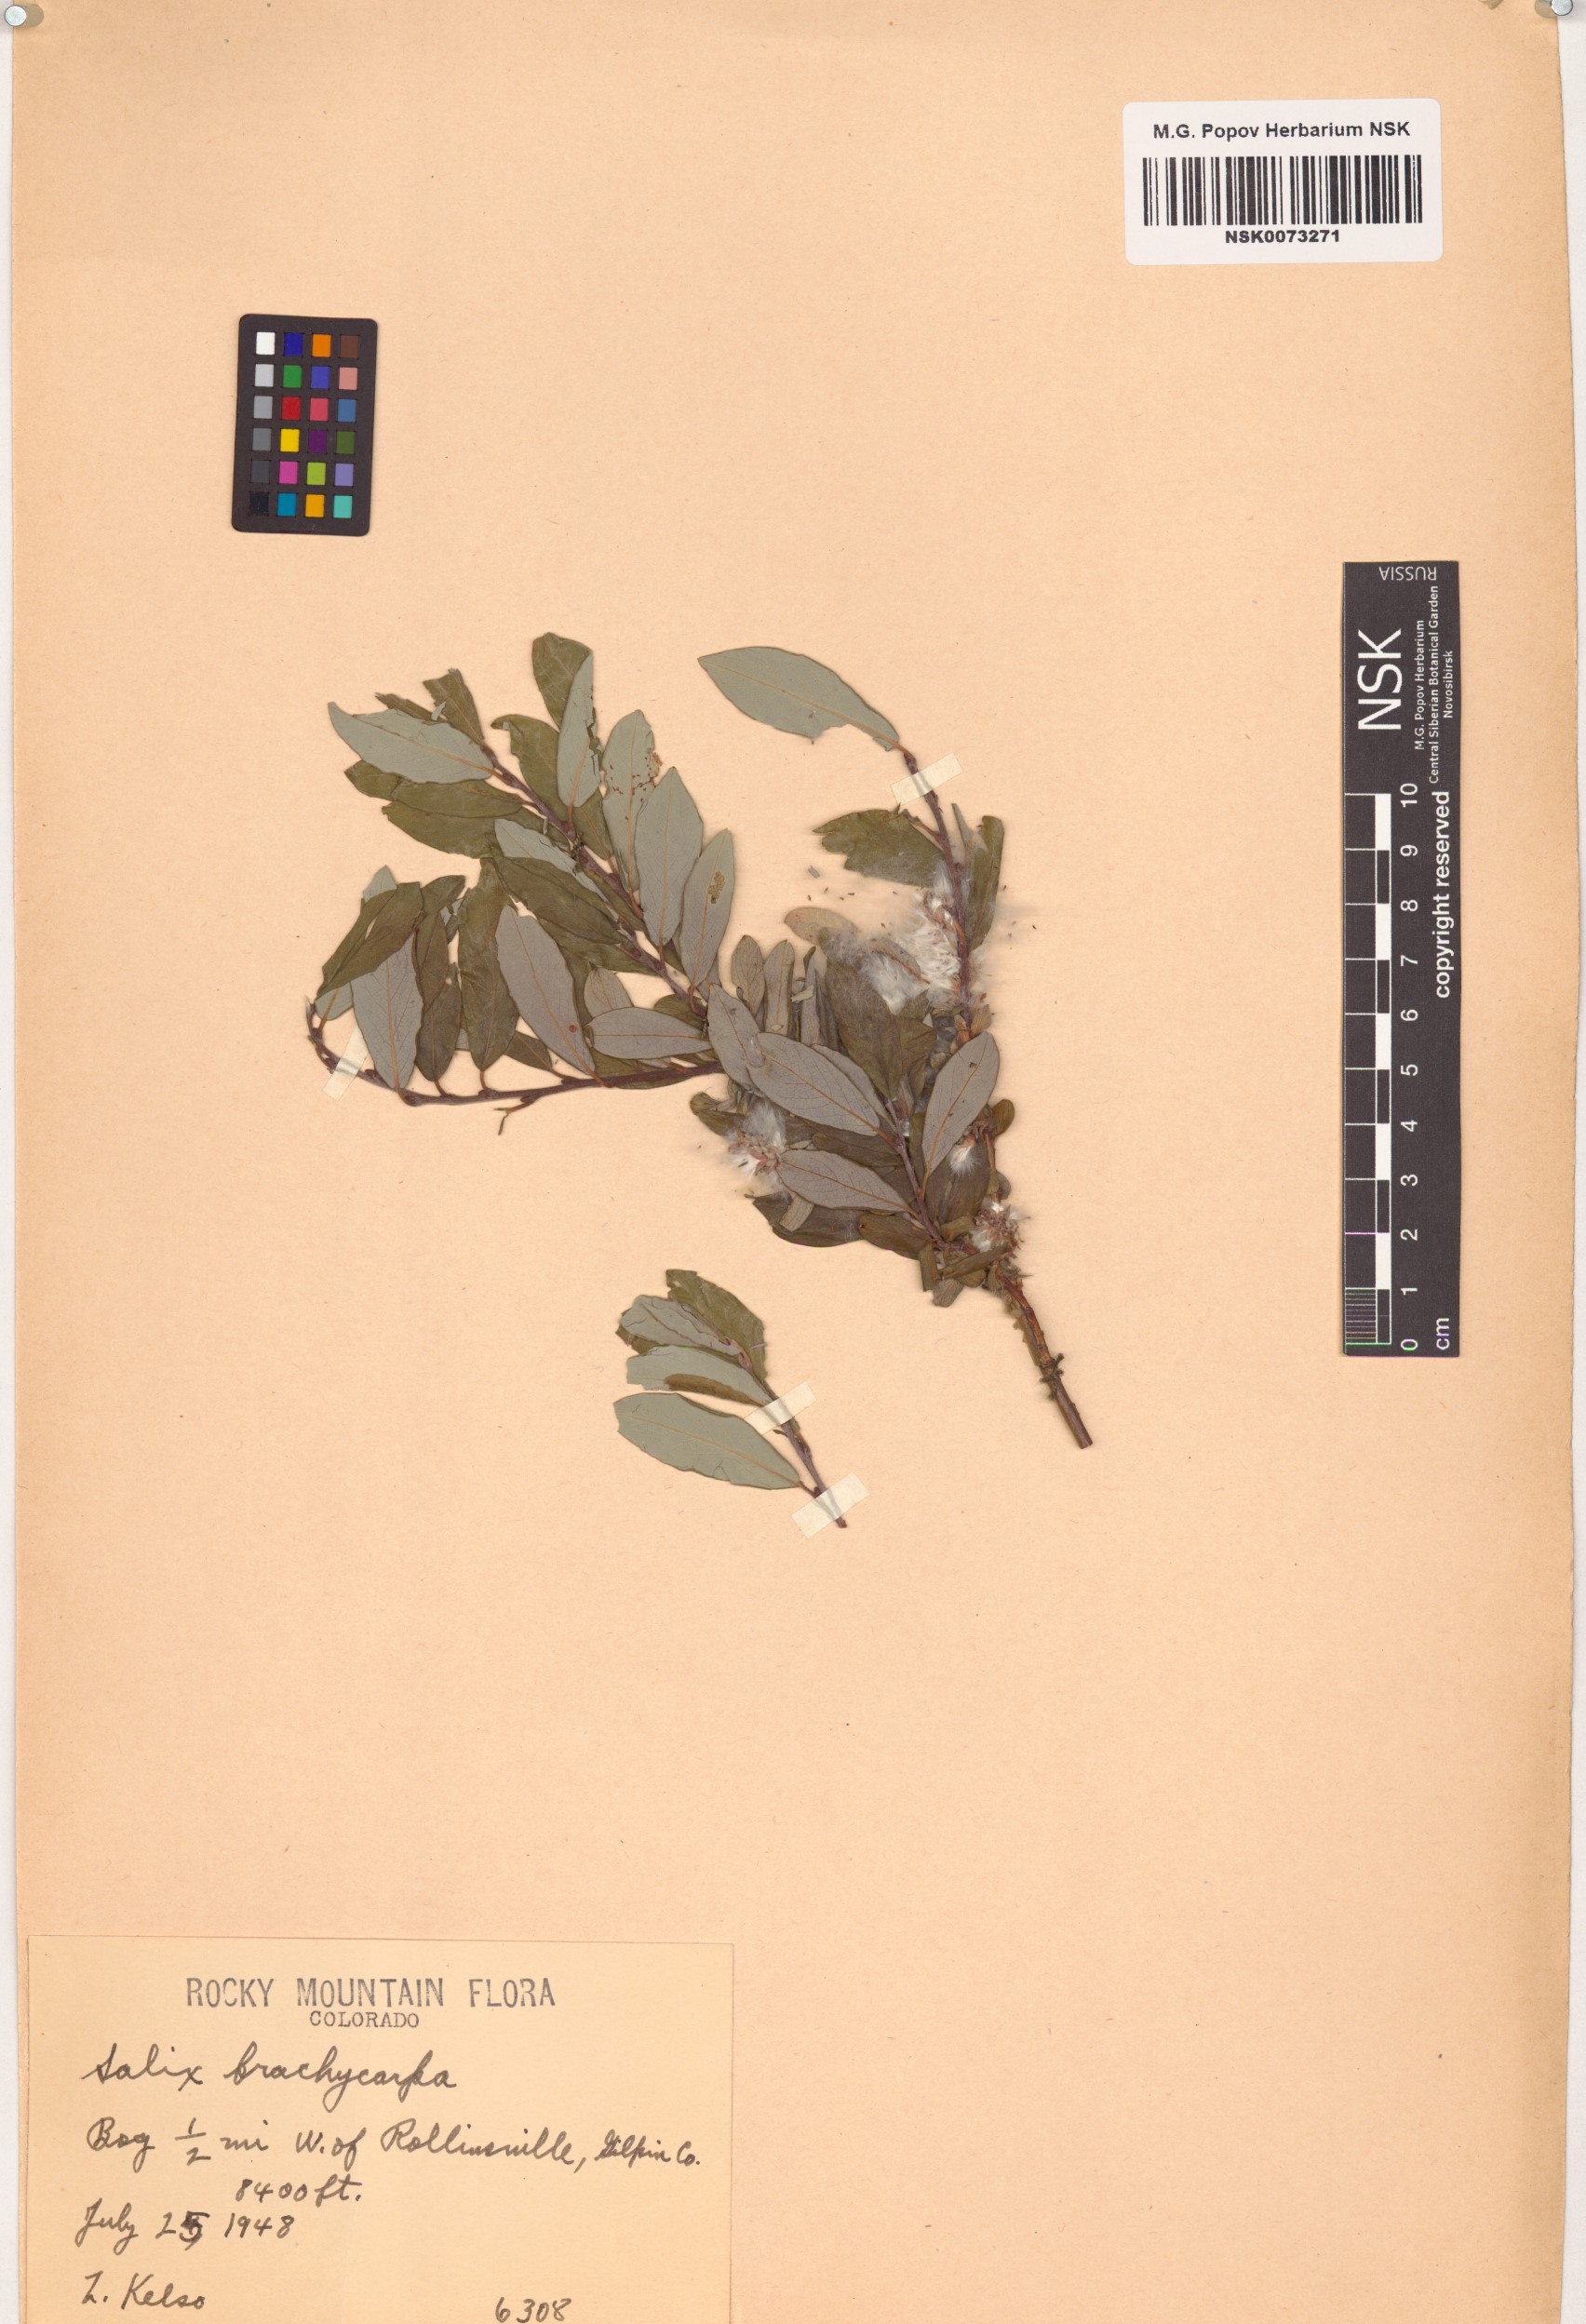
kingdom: Plantae
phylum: Tracheophyta
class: Magnoliopsida
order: Malpighiales
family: Salicaceae
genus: Salix
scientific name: Salix brachycarpa
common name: Barren-ground willow
